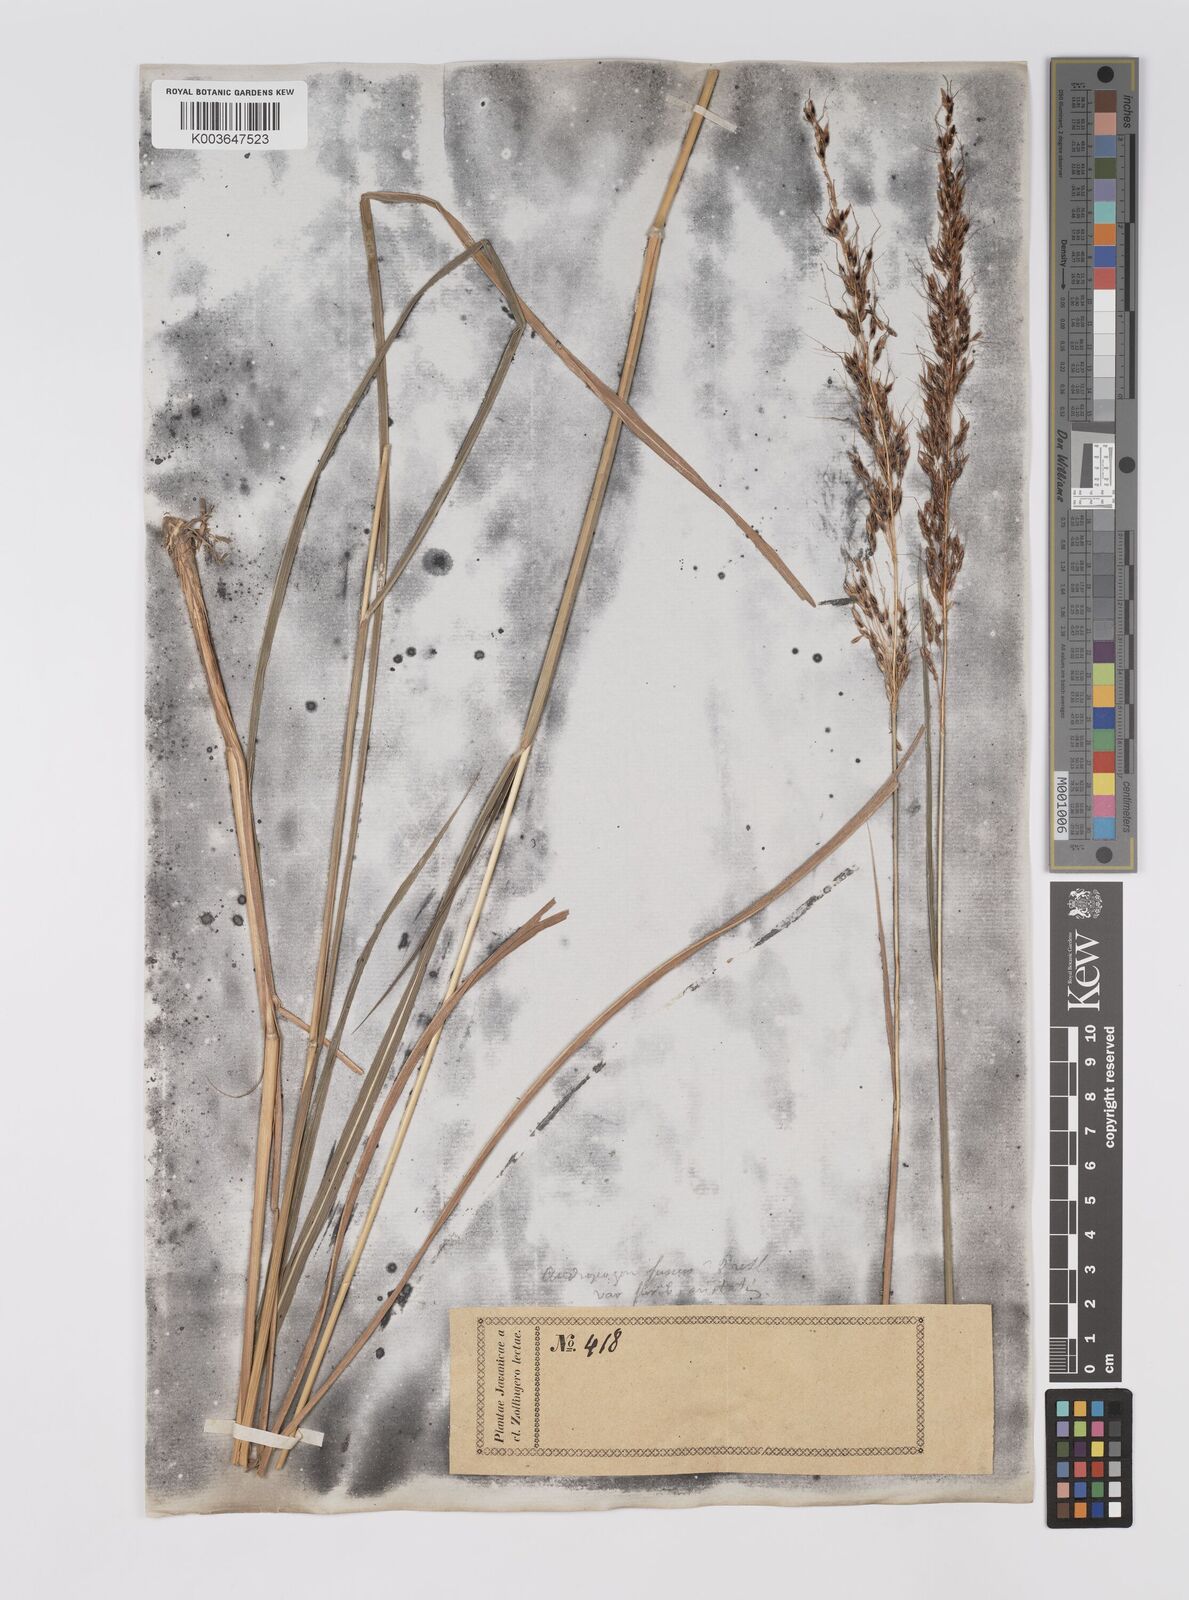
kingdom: Plantae
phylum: Tracheophyta
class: Liliopsida
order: Poales
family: Poaceae
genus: Sorghum
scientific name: Sorghum nitidum
